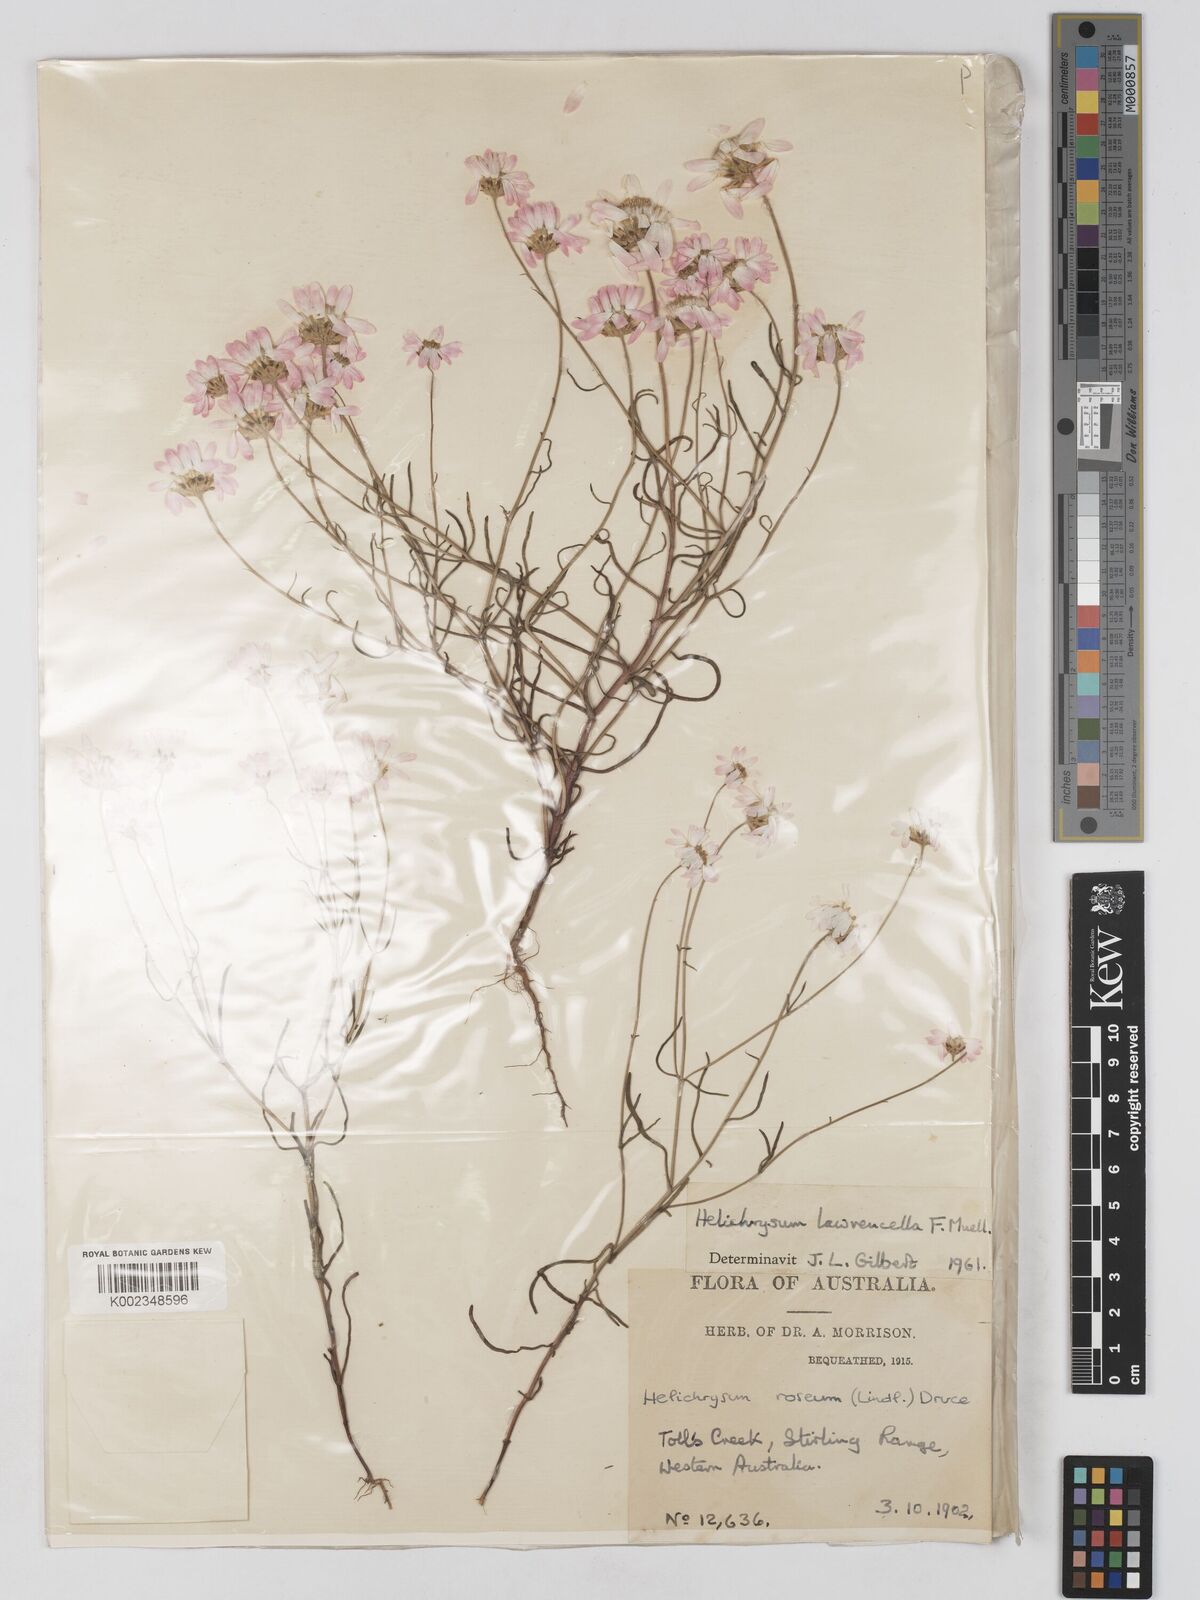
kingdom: Plantae
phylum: Tracheophyta
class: Magnoliopsida
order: Asterales
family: Asteraceae
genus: Lawrencella
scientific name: Lawrencella rosea
